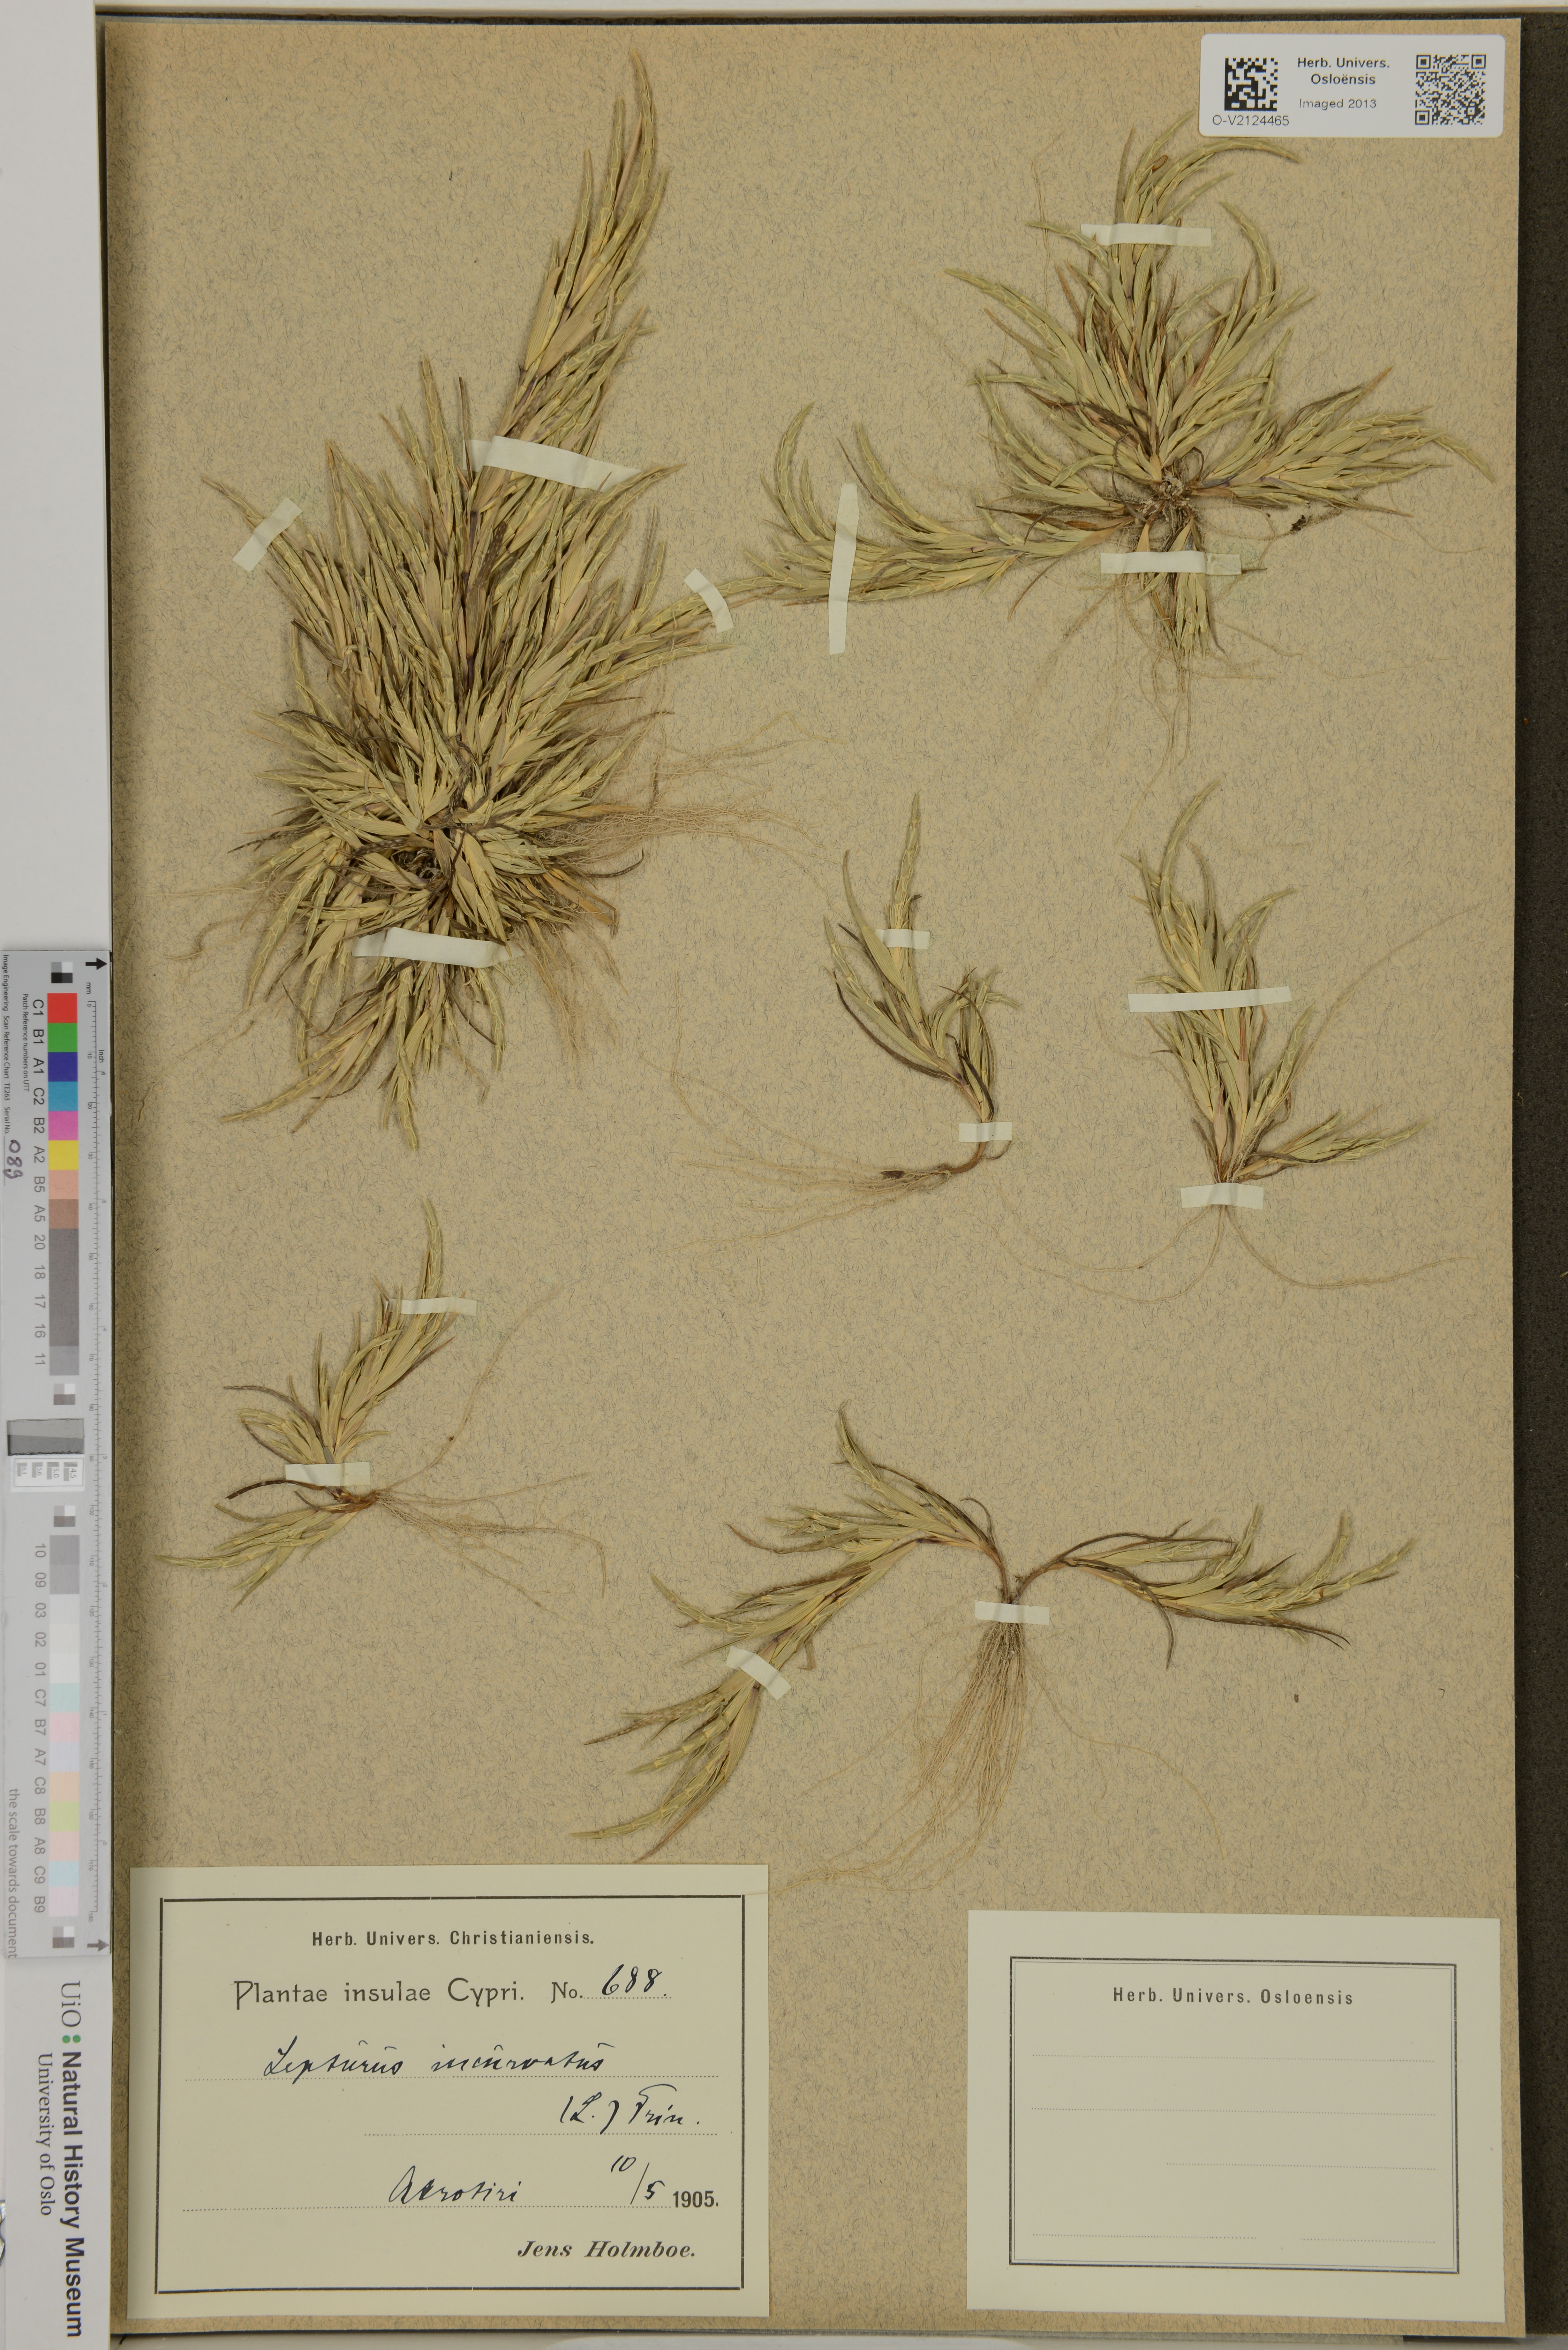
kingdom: Plantae
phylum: Tracheophyta
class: Liliopsida
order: Poales
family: Poaceae
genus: Parapholis
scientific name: Parapholis
